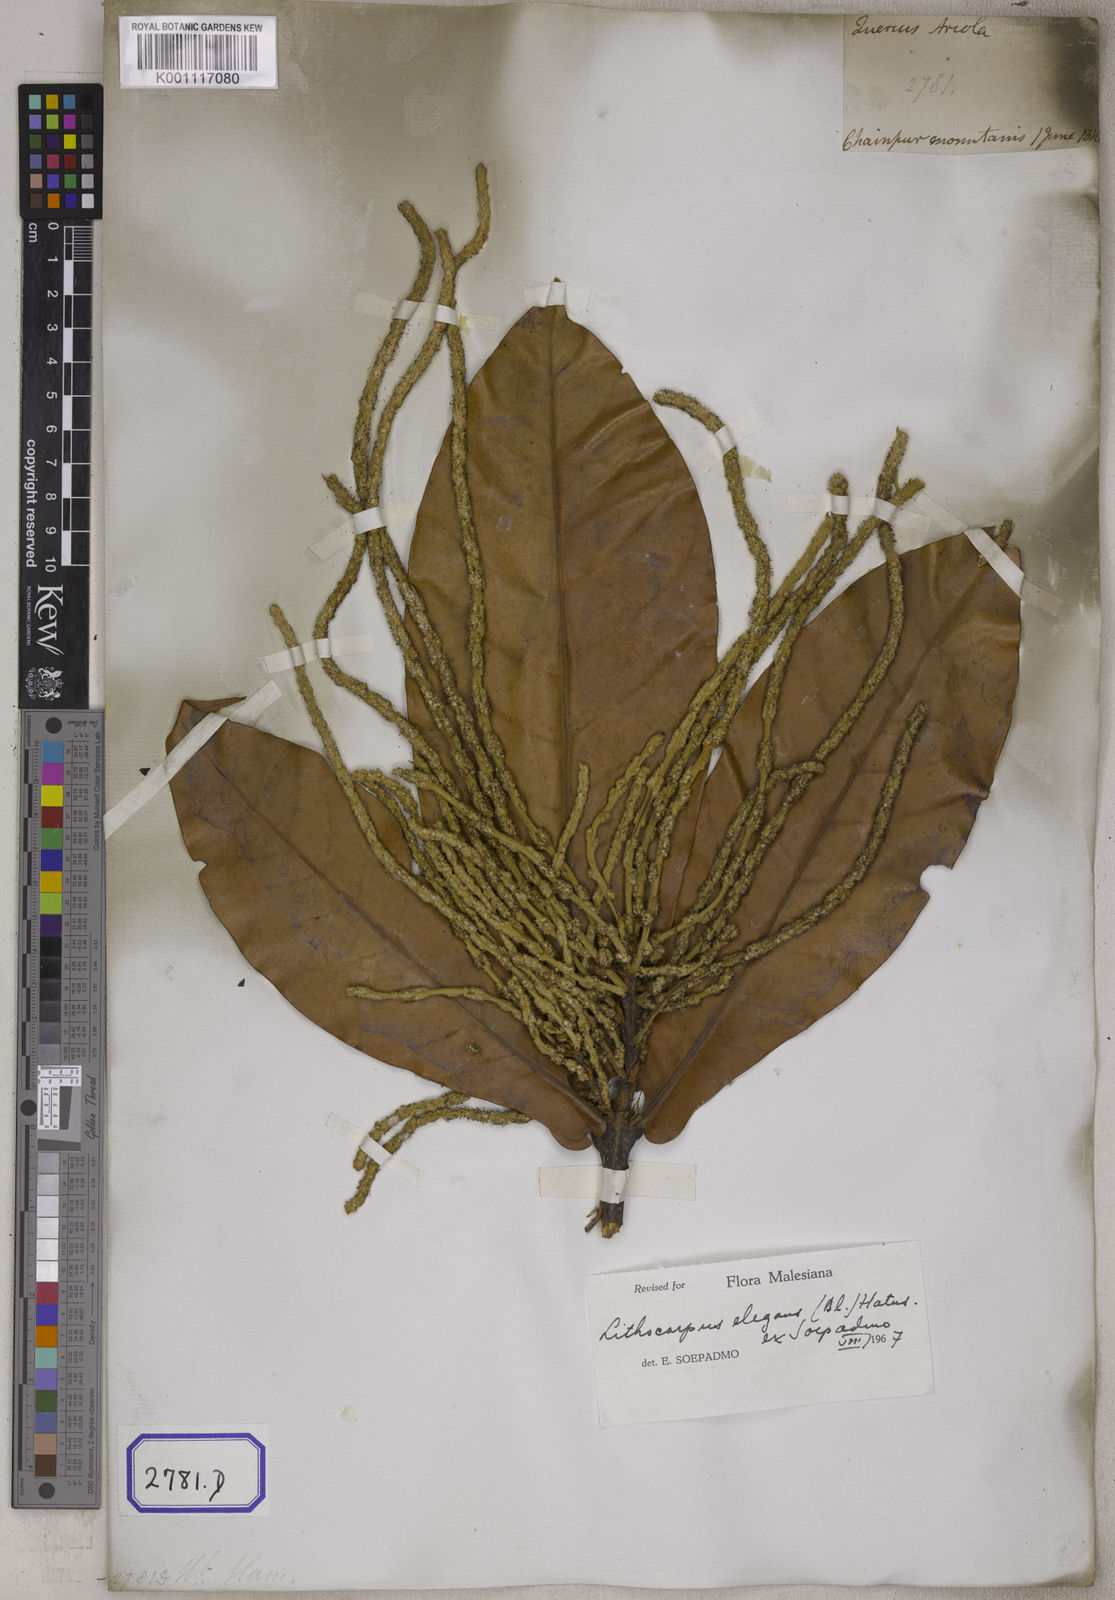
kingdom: Plantae
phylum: Tracheophyta
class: Magnoliopsida
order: Fagales
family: Fagaceae
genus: Lithocarpus
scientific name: Lithocarpus elegans
